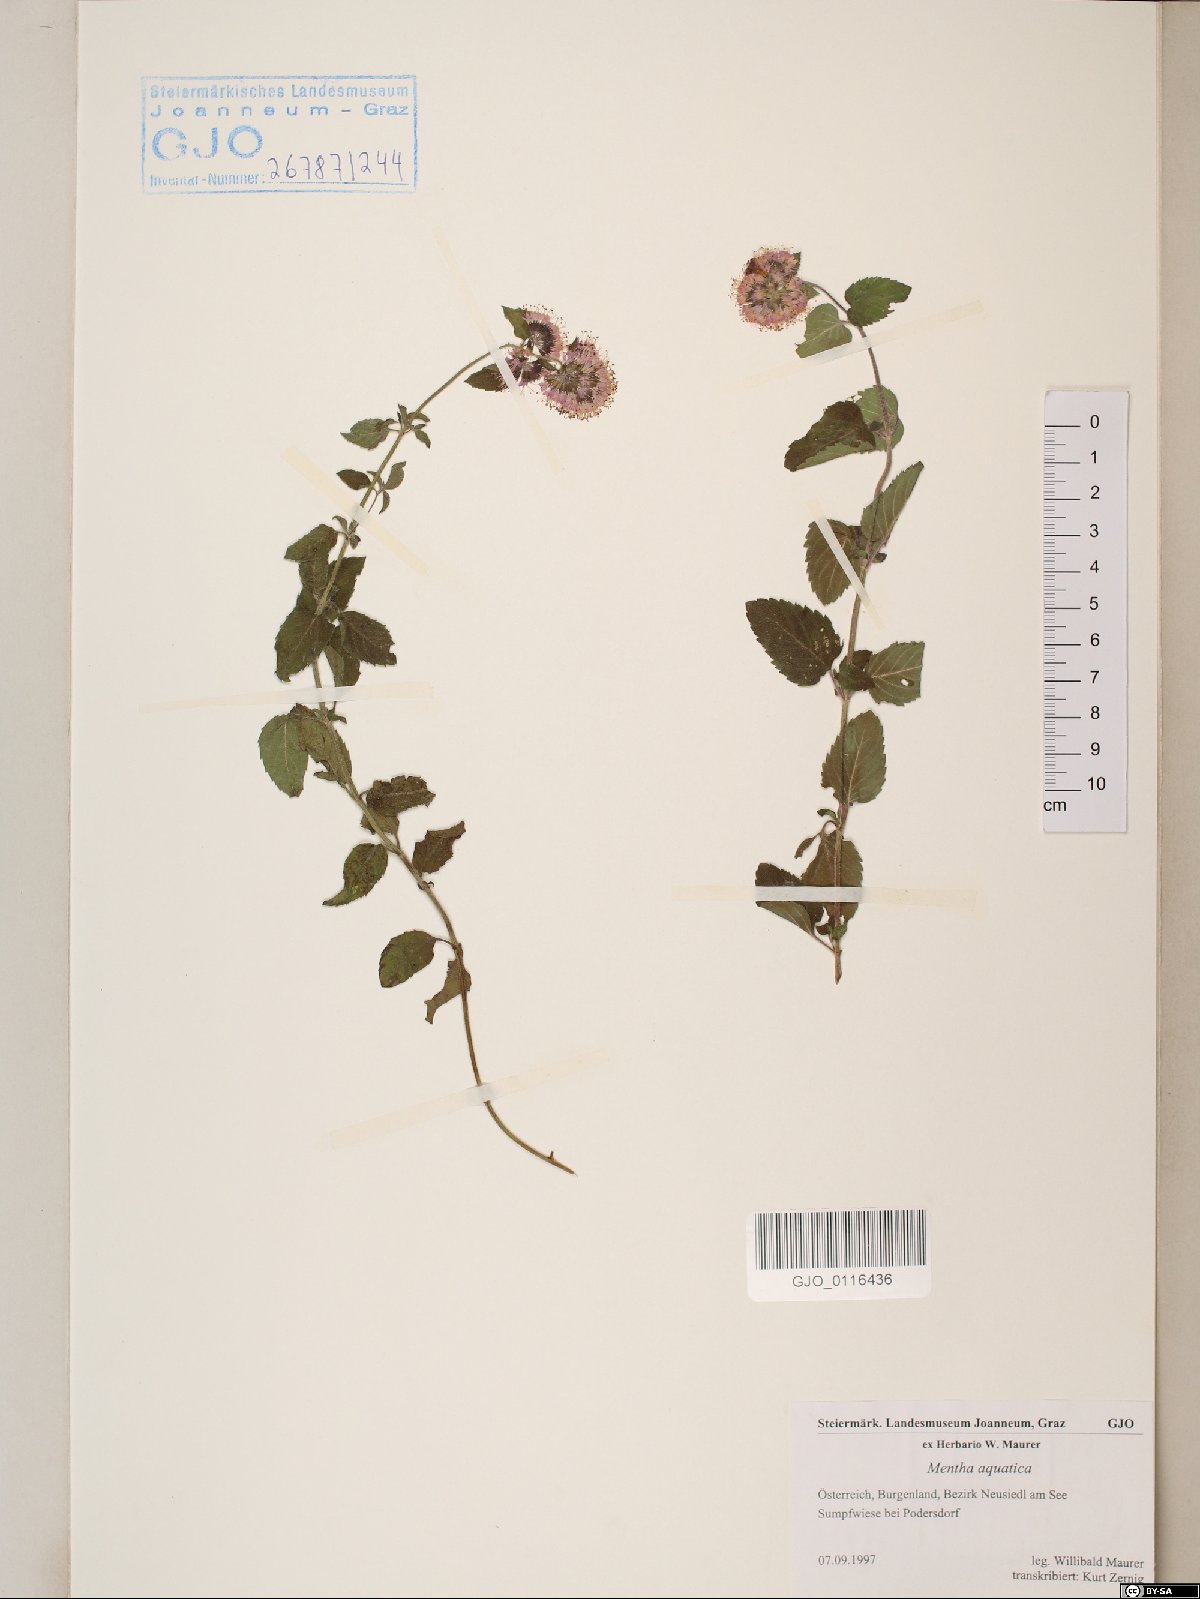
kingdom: Plantae
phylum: Tracheophyta
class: Magnoliopsida
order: Lamiales
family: Lamiaceae
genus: Mentha
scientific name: Mentha aquatica
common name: Water mint
